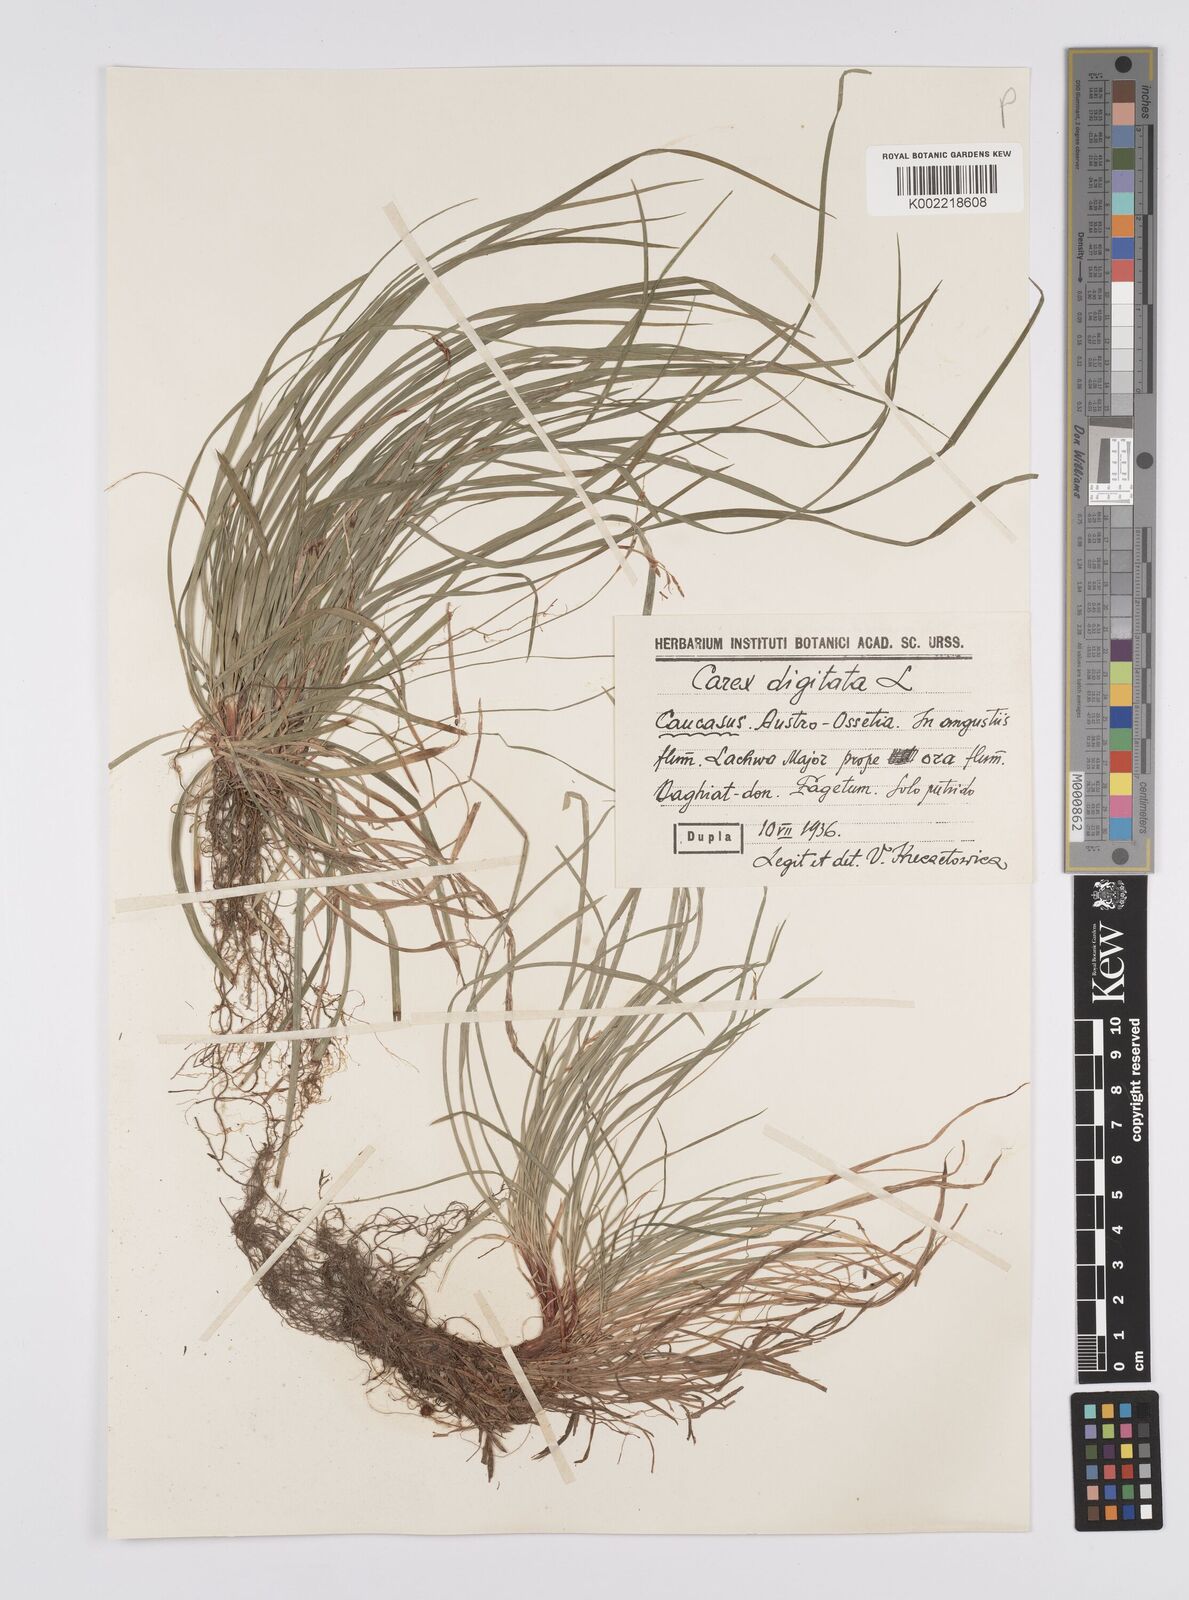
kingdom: Plantae
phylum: Tracheophyta
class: Liliopsida
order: Poales
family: Cyperaceae
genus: Carex
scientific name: Carex digitata
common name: Fingered sedge
